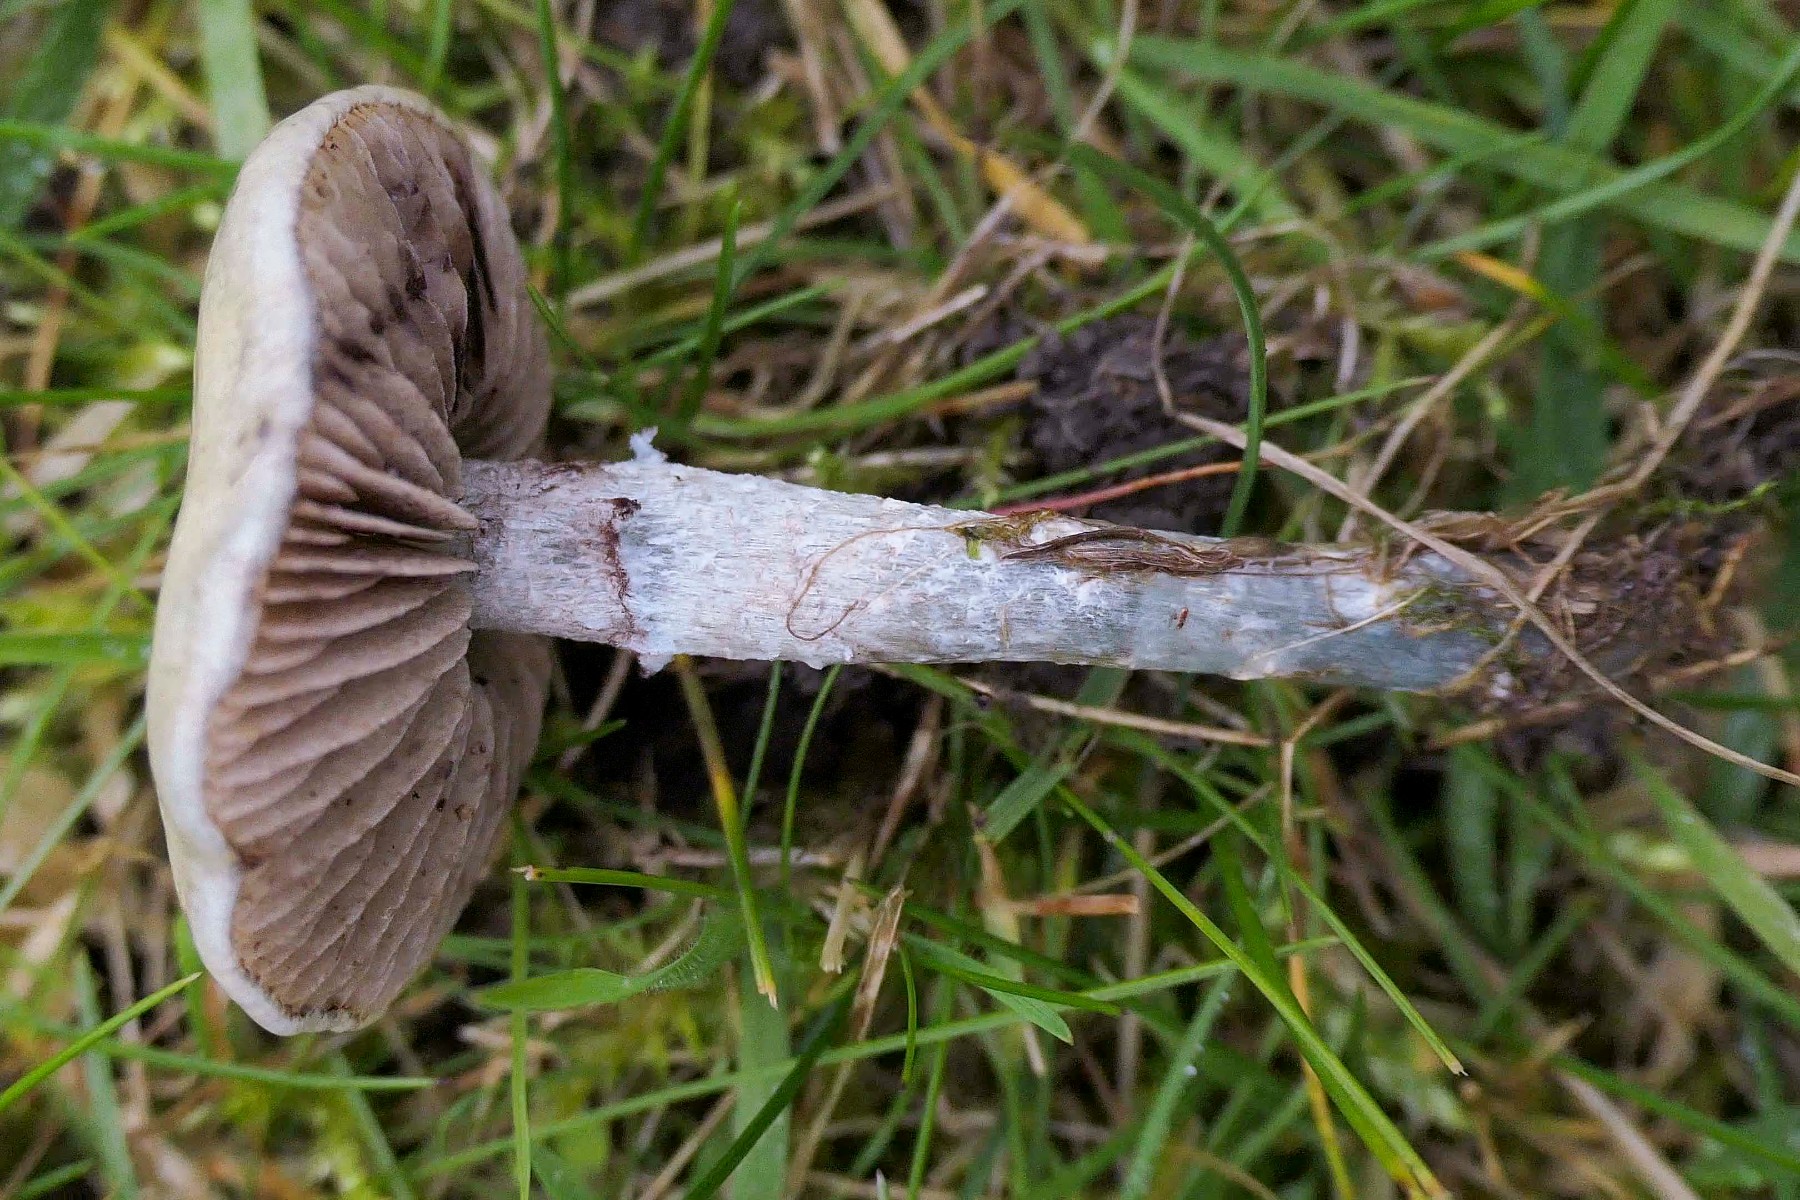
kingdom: Fungi
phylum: Basidiomycota
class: Agaricomycetes
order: Agaricales
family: Strophariaceae
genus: Stropharia
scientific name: Stropharia pseudocyanea
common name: blegblå bredblad
